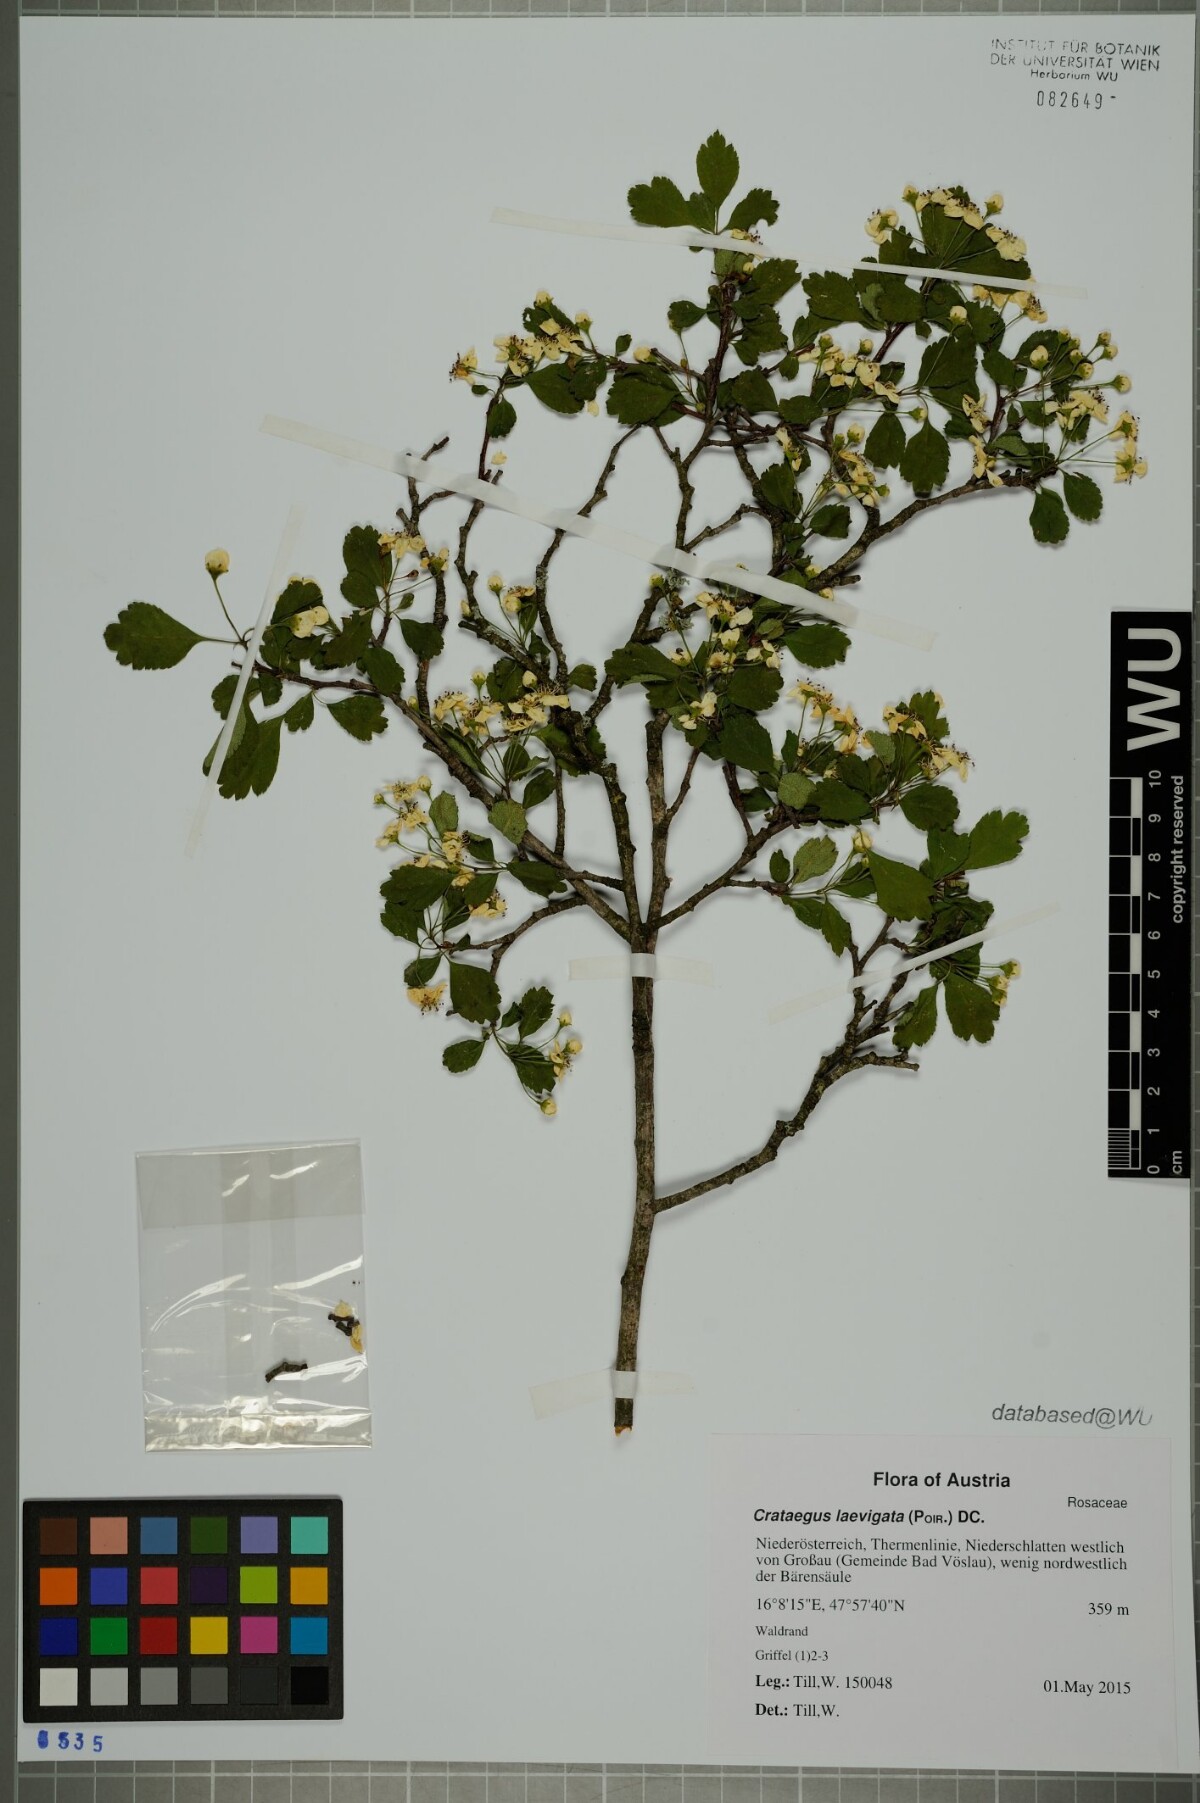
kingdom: Plantae
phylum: Tracheophyta
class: Magnoliopsida
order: Rosales
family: Rosaceae
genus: Crataegus
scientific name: Crataegus laevigata
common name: Midland hawthorn
